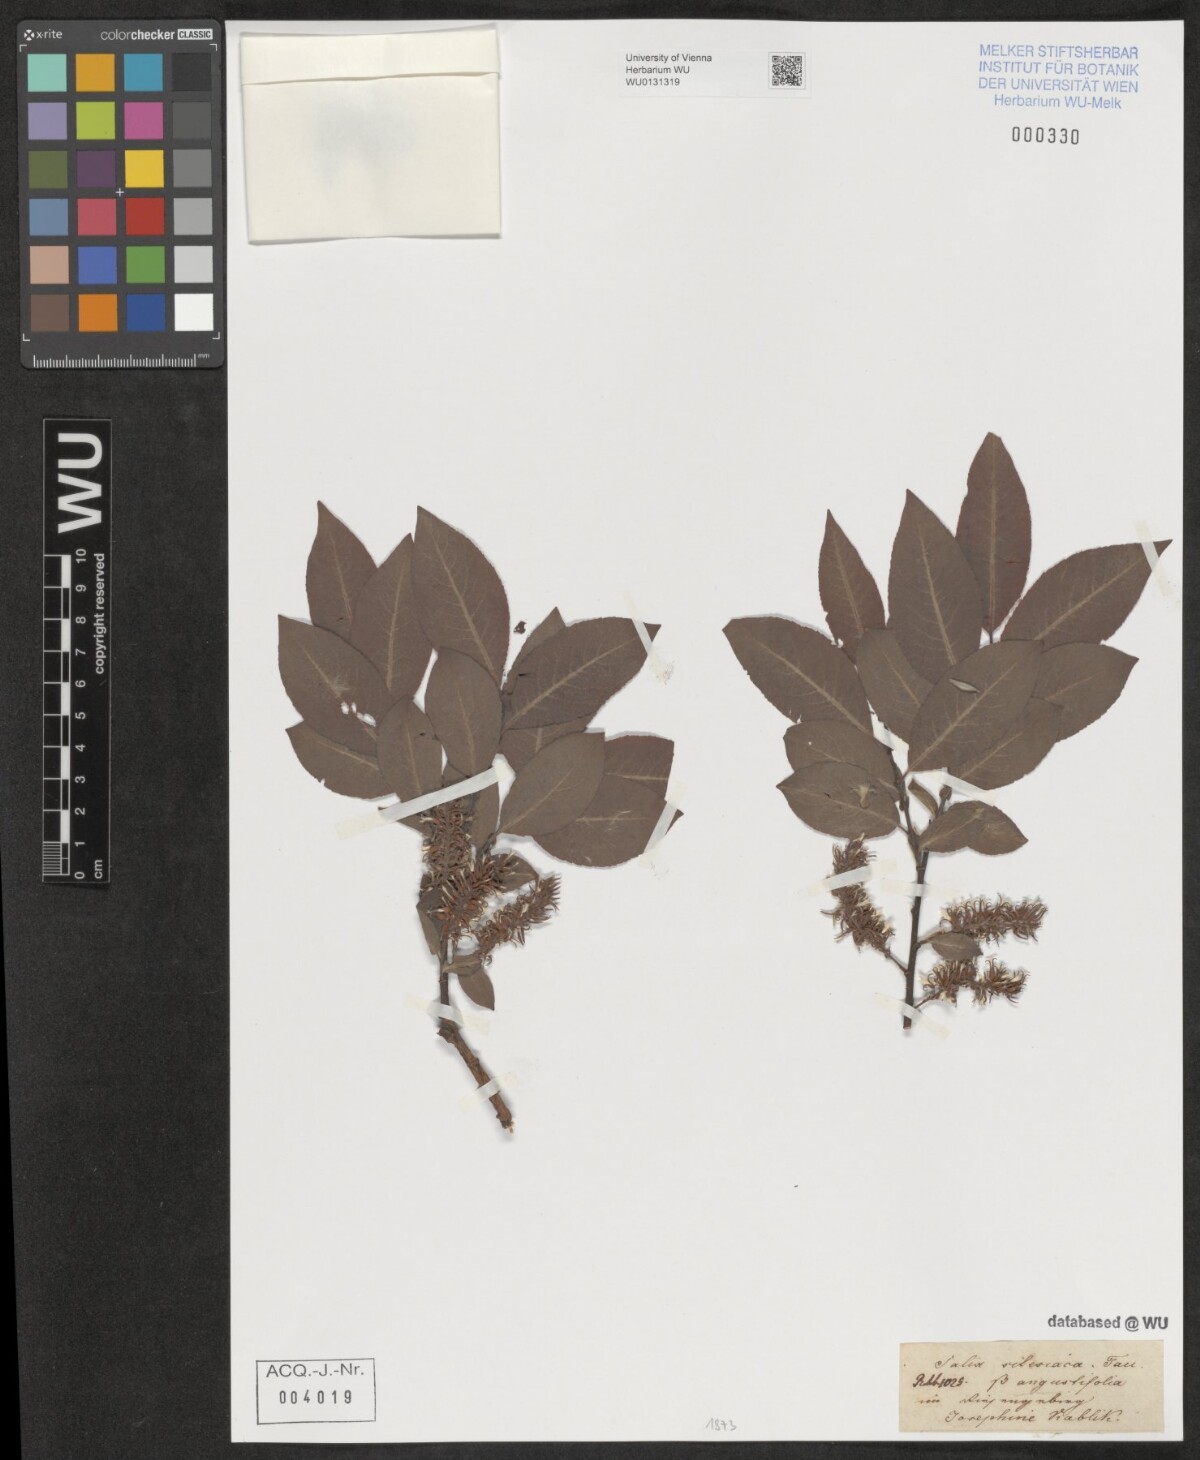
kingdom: Plantae
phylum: Tracheophyta
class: Magnoliopsida
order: Malpighiales
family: Salicaceae
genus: Salix
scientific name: Salix silesiaca
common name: Silesian willow
